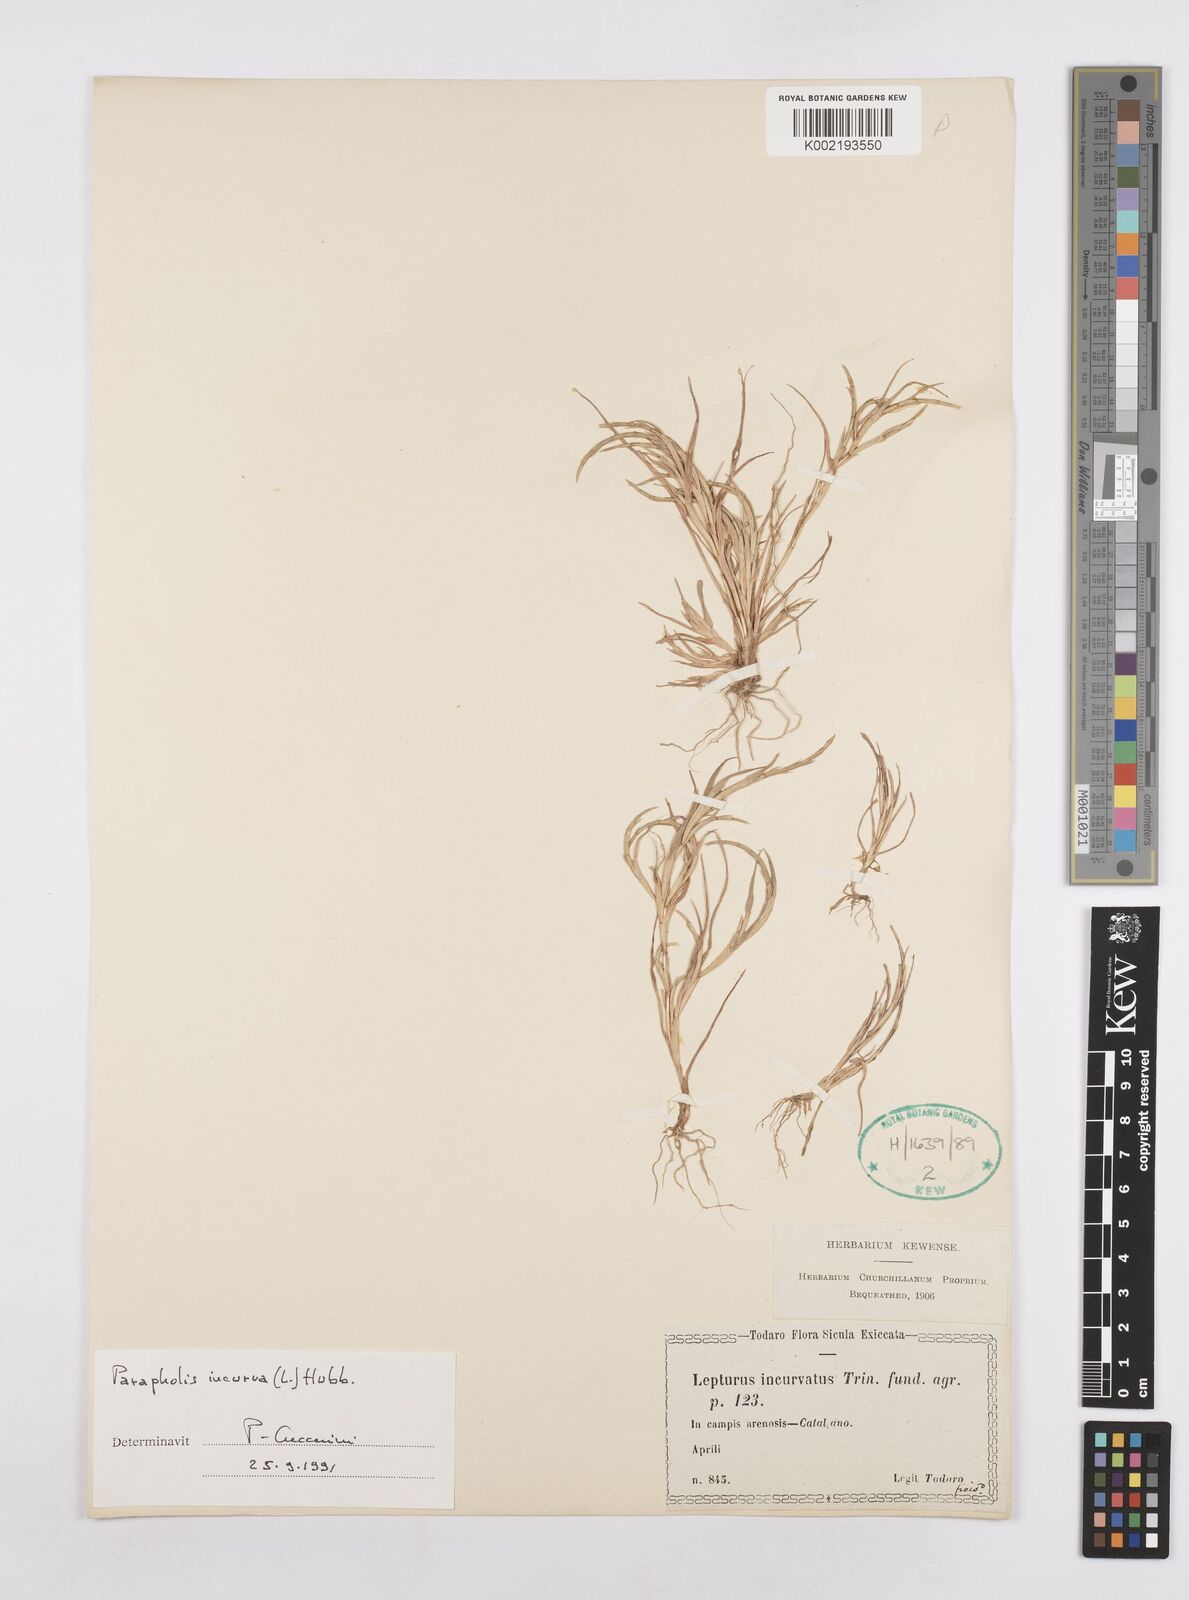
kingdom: Plantae
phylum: Tracheophyta
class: Liliopsida
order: Poales
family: Poaceae
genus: Parapholis
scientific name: Parapholis incurva
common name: Curved sicklegrass
